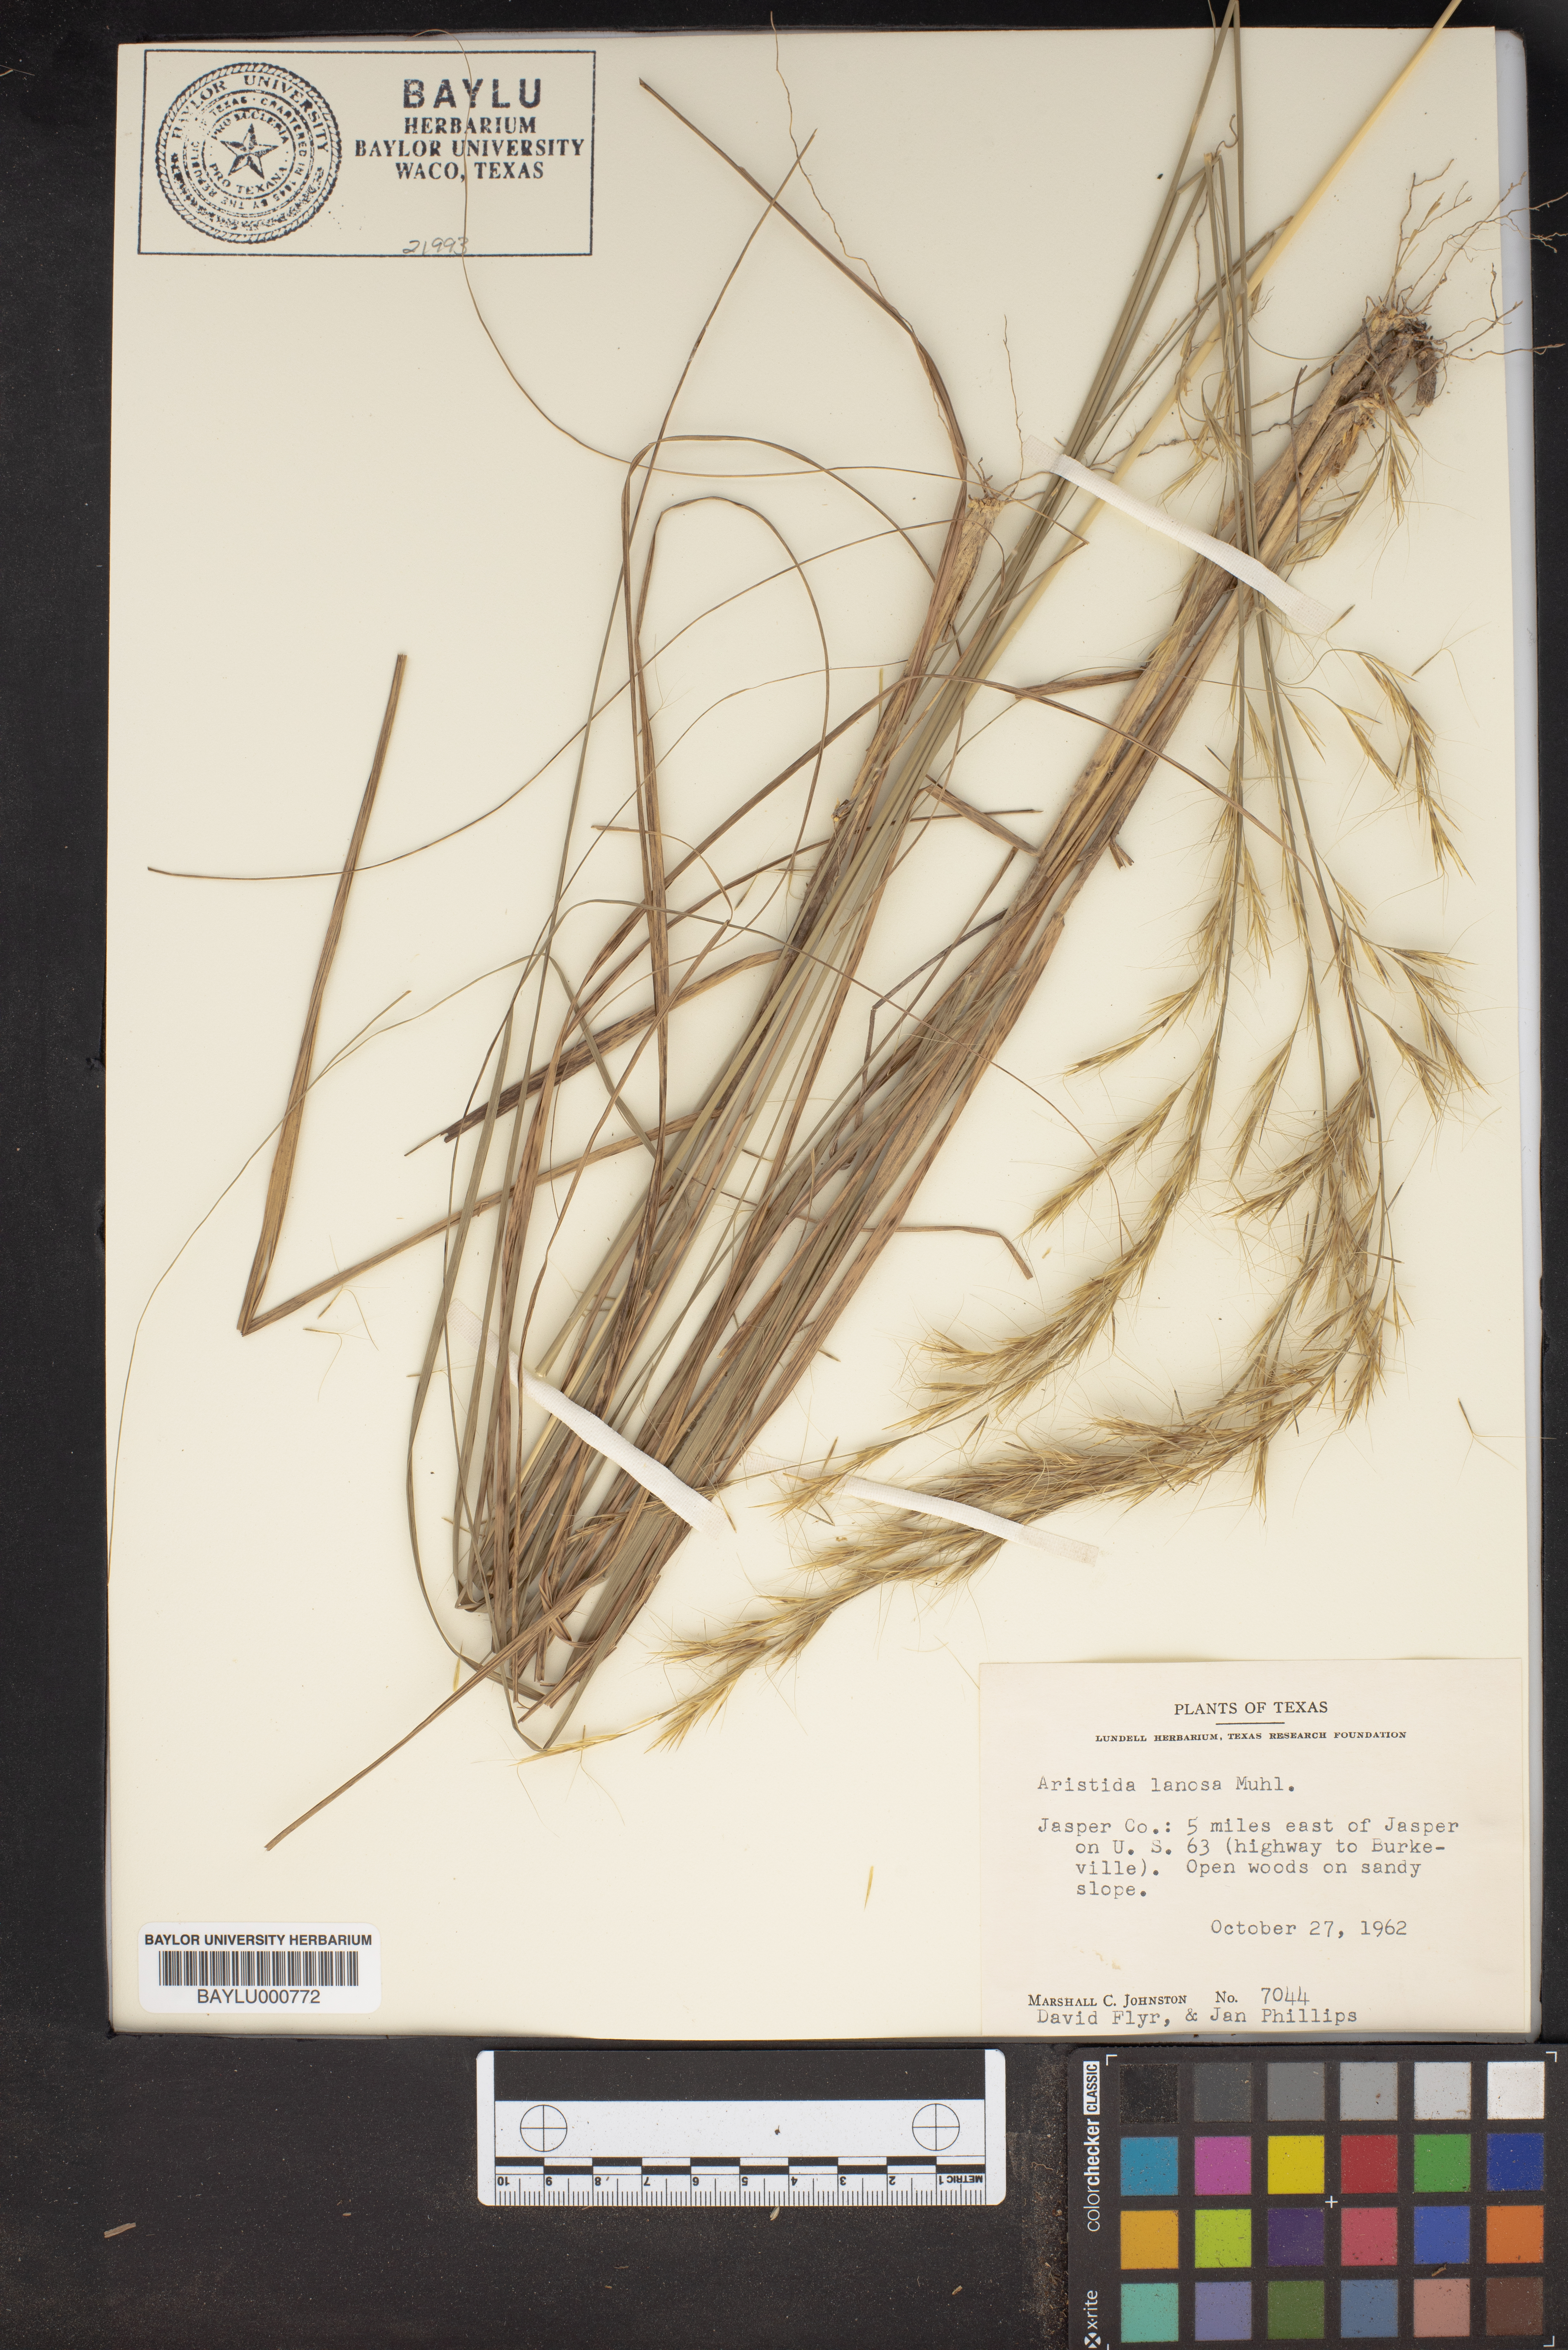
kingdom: Plantae
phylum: Tracheophyta
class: Liliopsida
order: Poales
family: Poaceae
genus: Aristida
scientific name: Aristida lanosa
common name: Woolly three-awn
